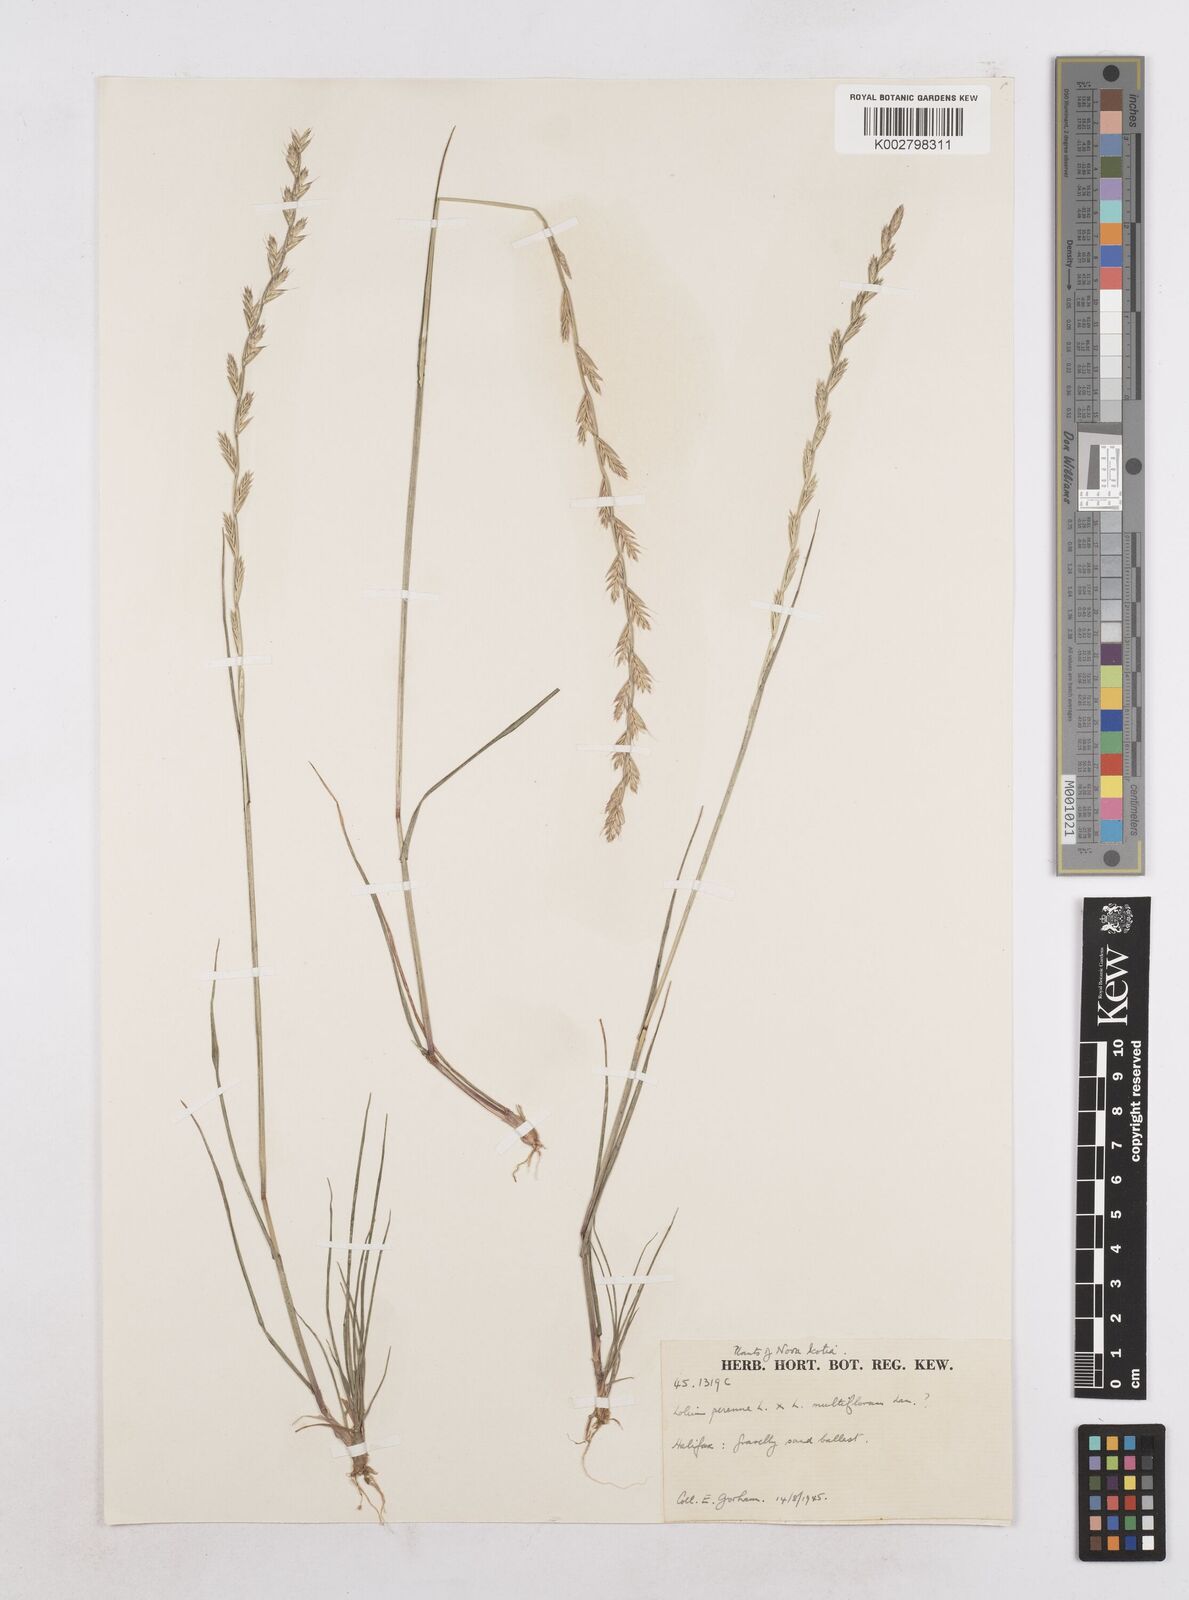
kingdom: Plantae
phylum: Tracheophyta
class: Liliopsida
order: Poales
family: Poaceae
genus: Lolium
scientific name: Lolium perenne
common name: Perennial ryegrass
